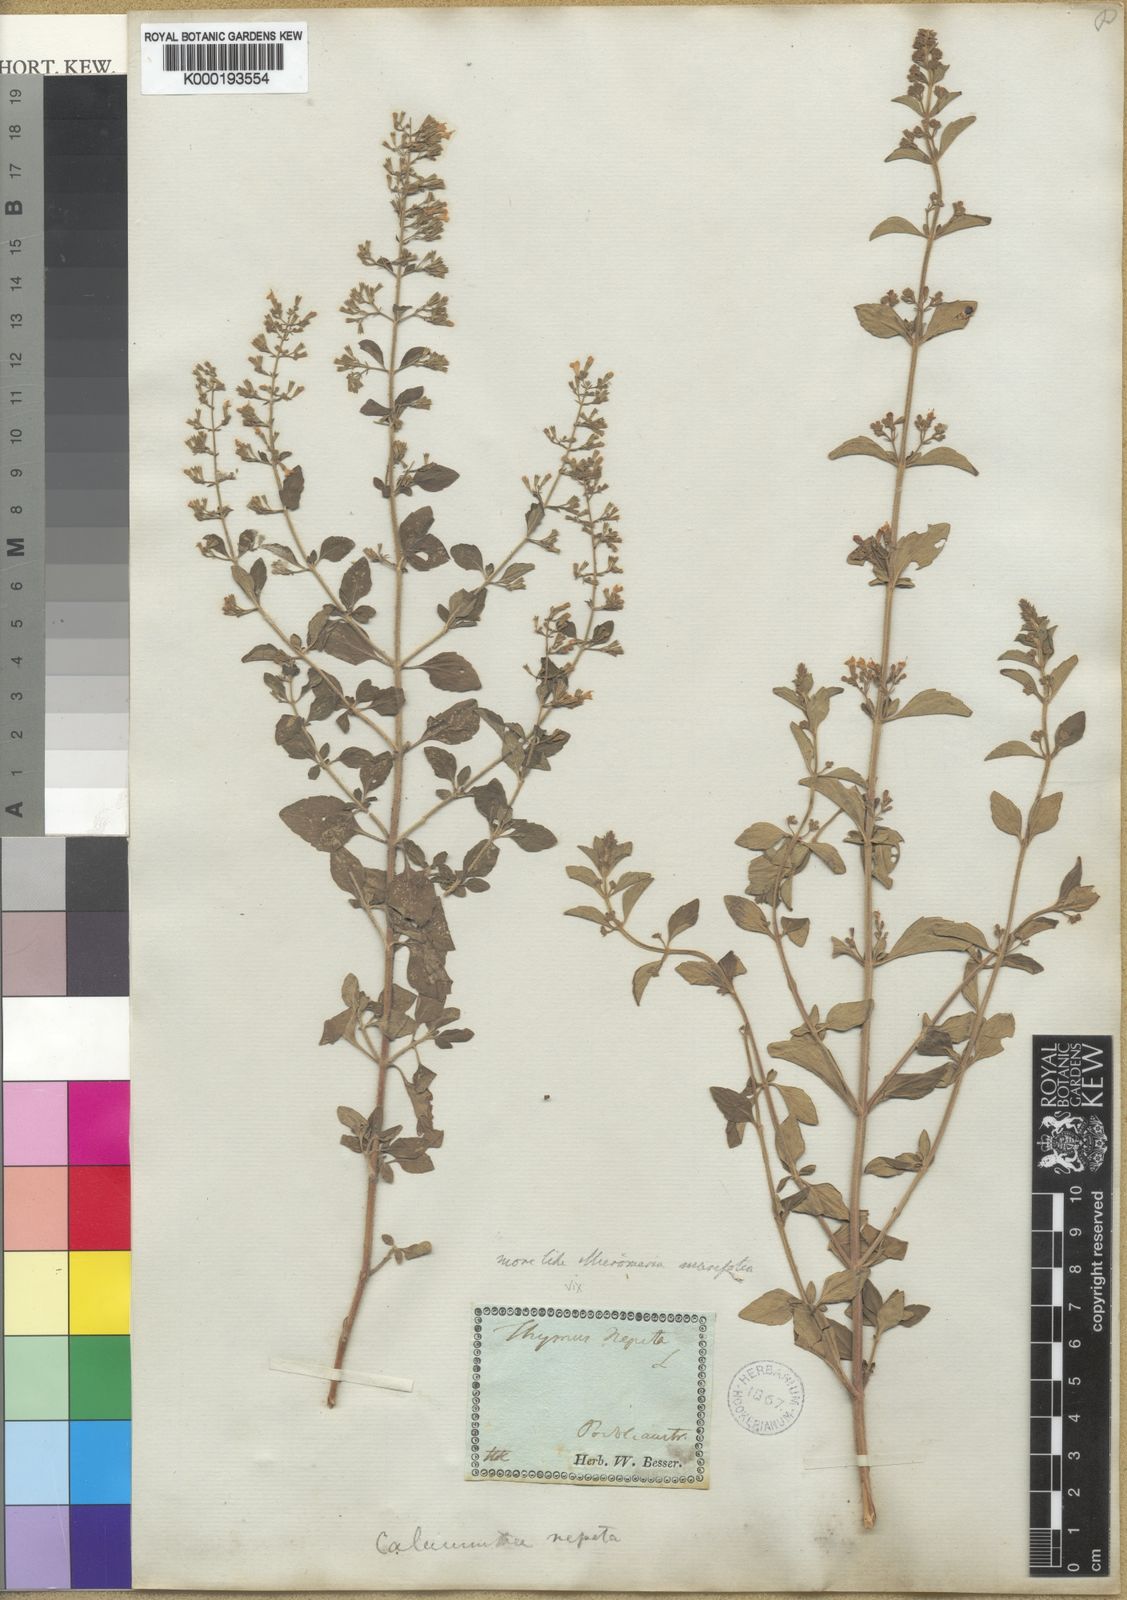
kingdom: Plantae
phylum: Tracheophyta
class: Magnoliopsida
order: Lamiales
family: Lamiaceae
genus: Clinopodium
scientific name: Clinopodium serpyllifolium
